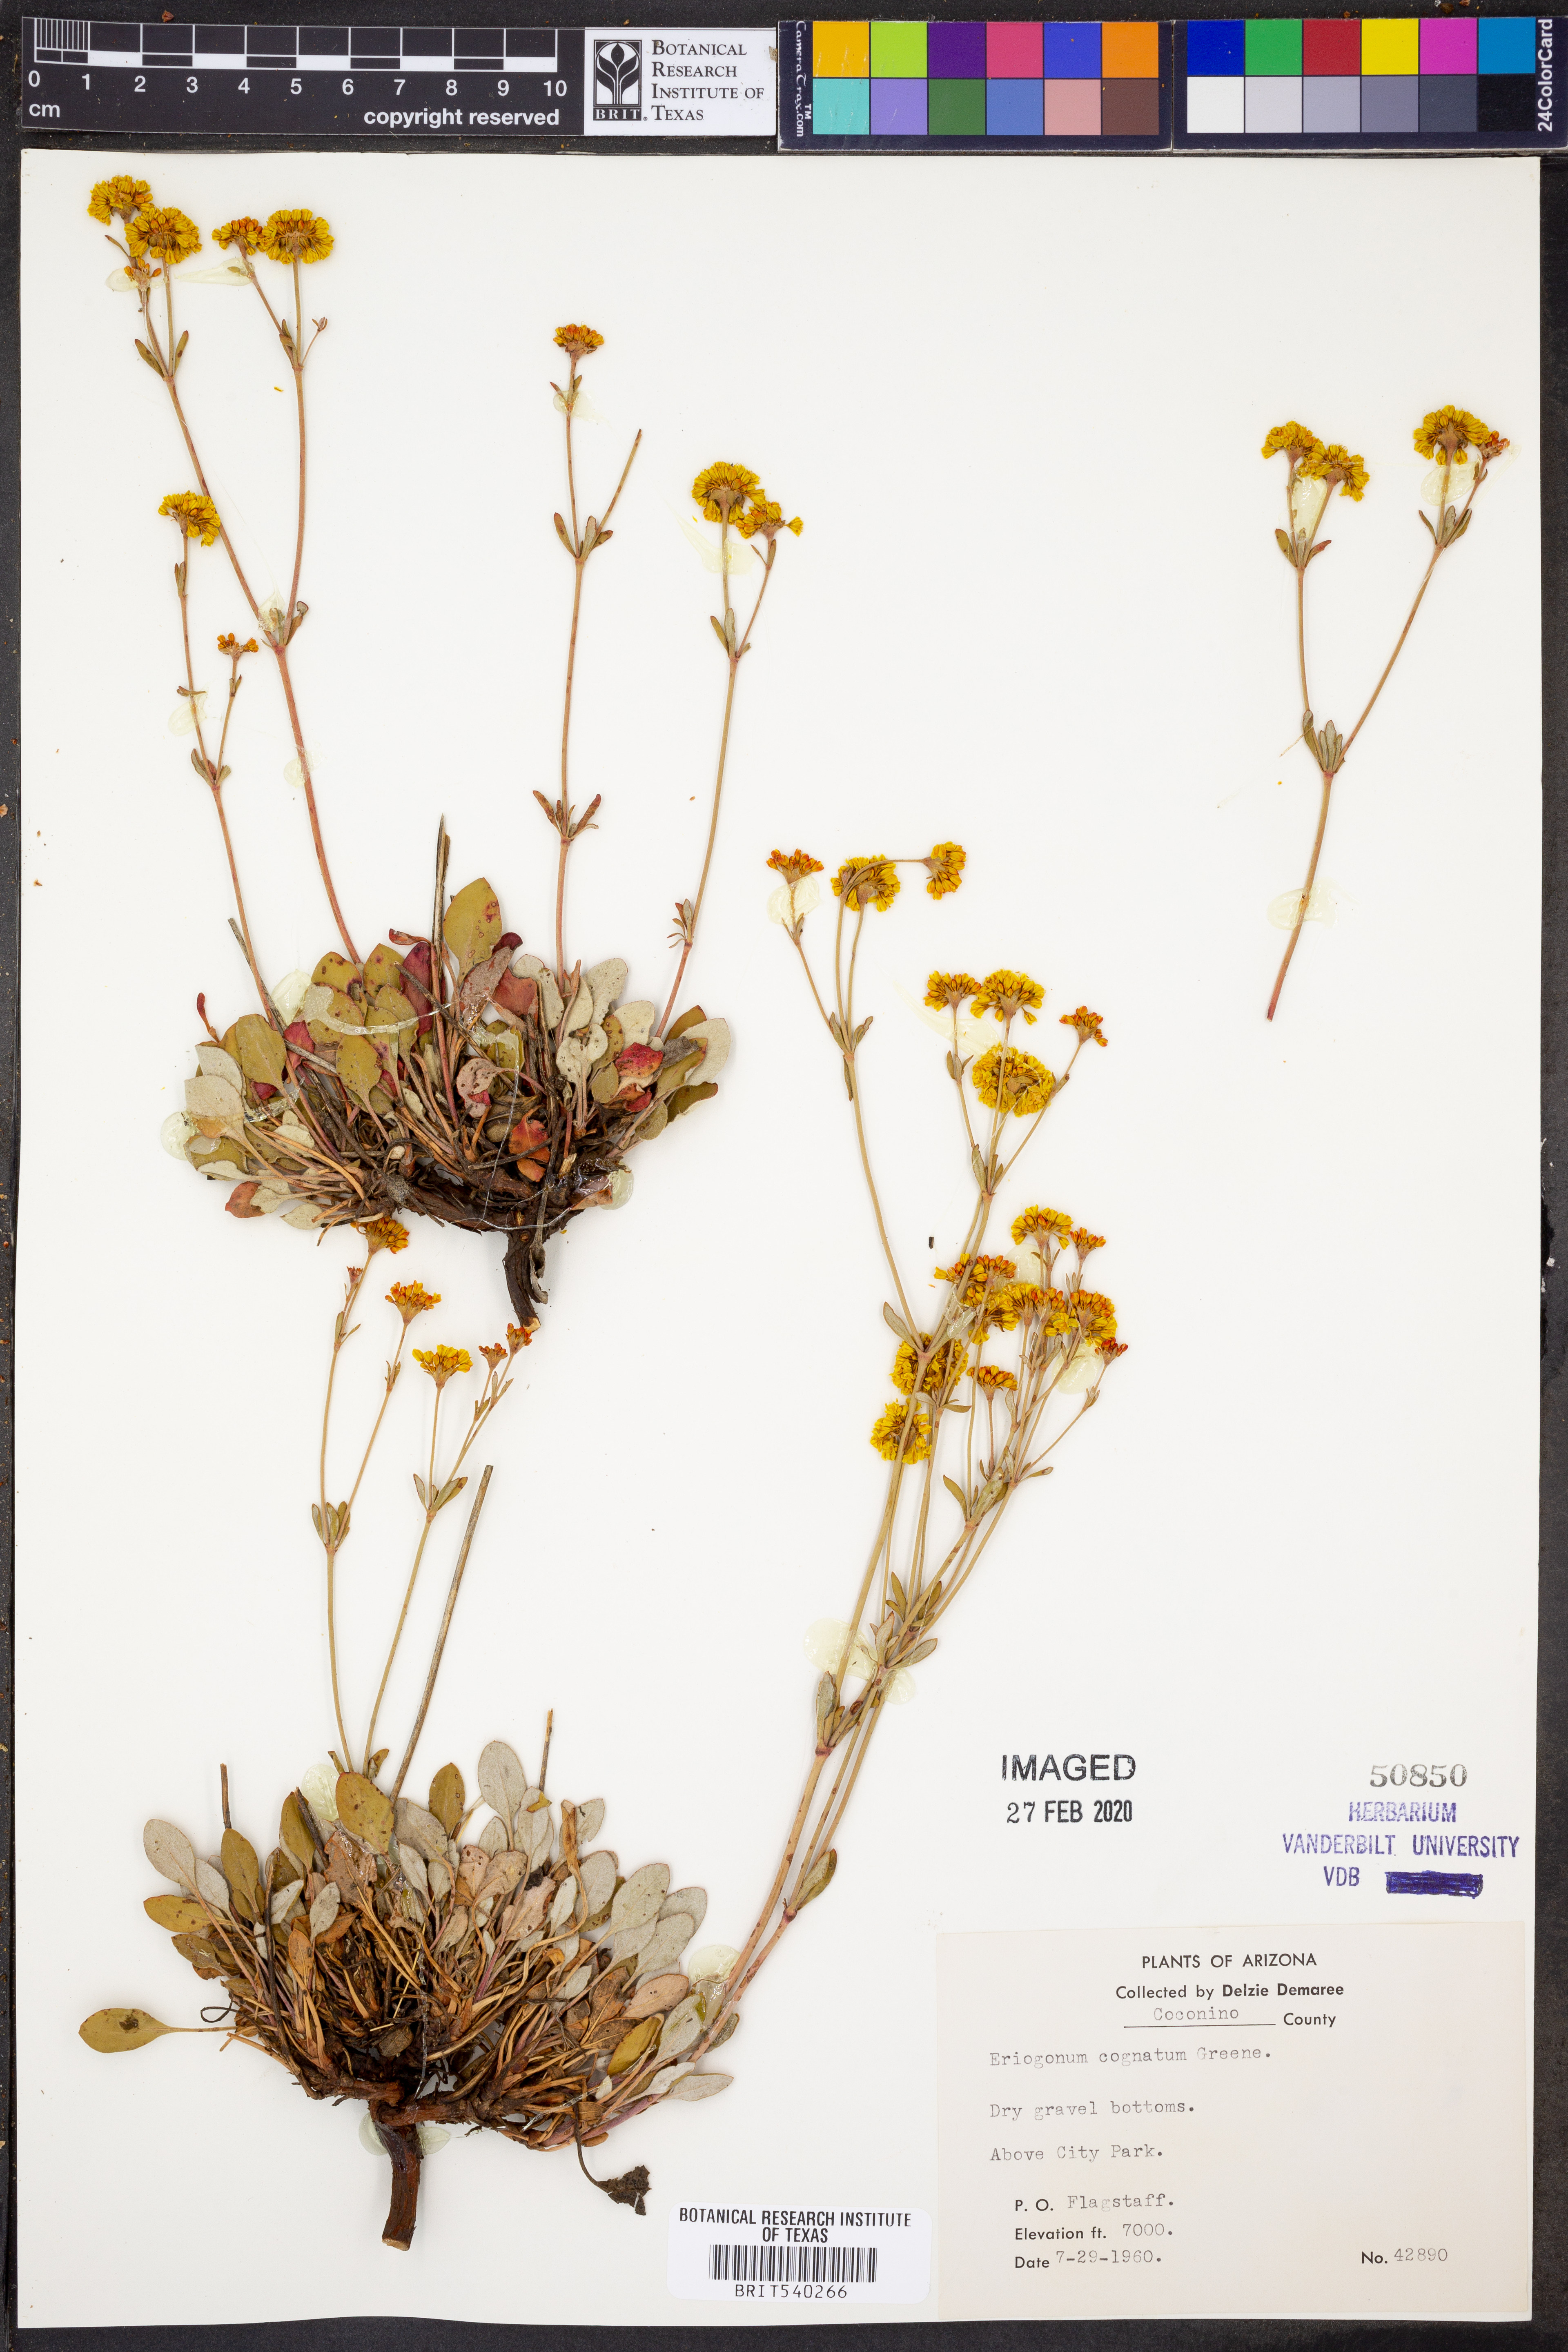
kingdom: Plantae
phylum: Tracheophyta
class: Magnoliopsida
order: Caryophyllales
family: Polygonaceae
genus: Eriogonum
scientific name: Eriogonum umbellatum
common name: Sulfur-buckwheat
